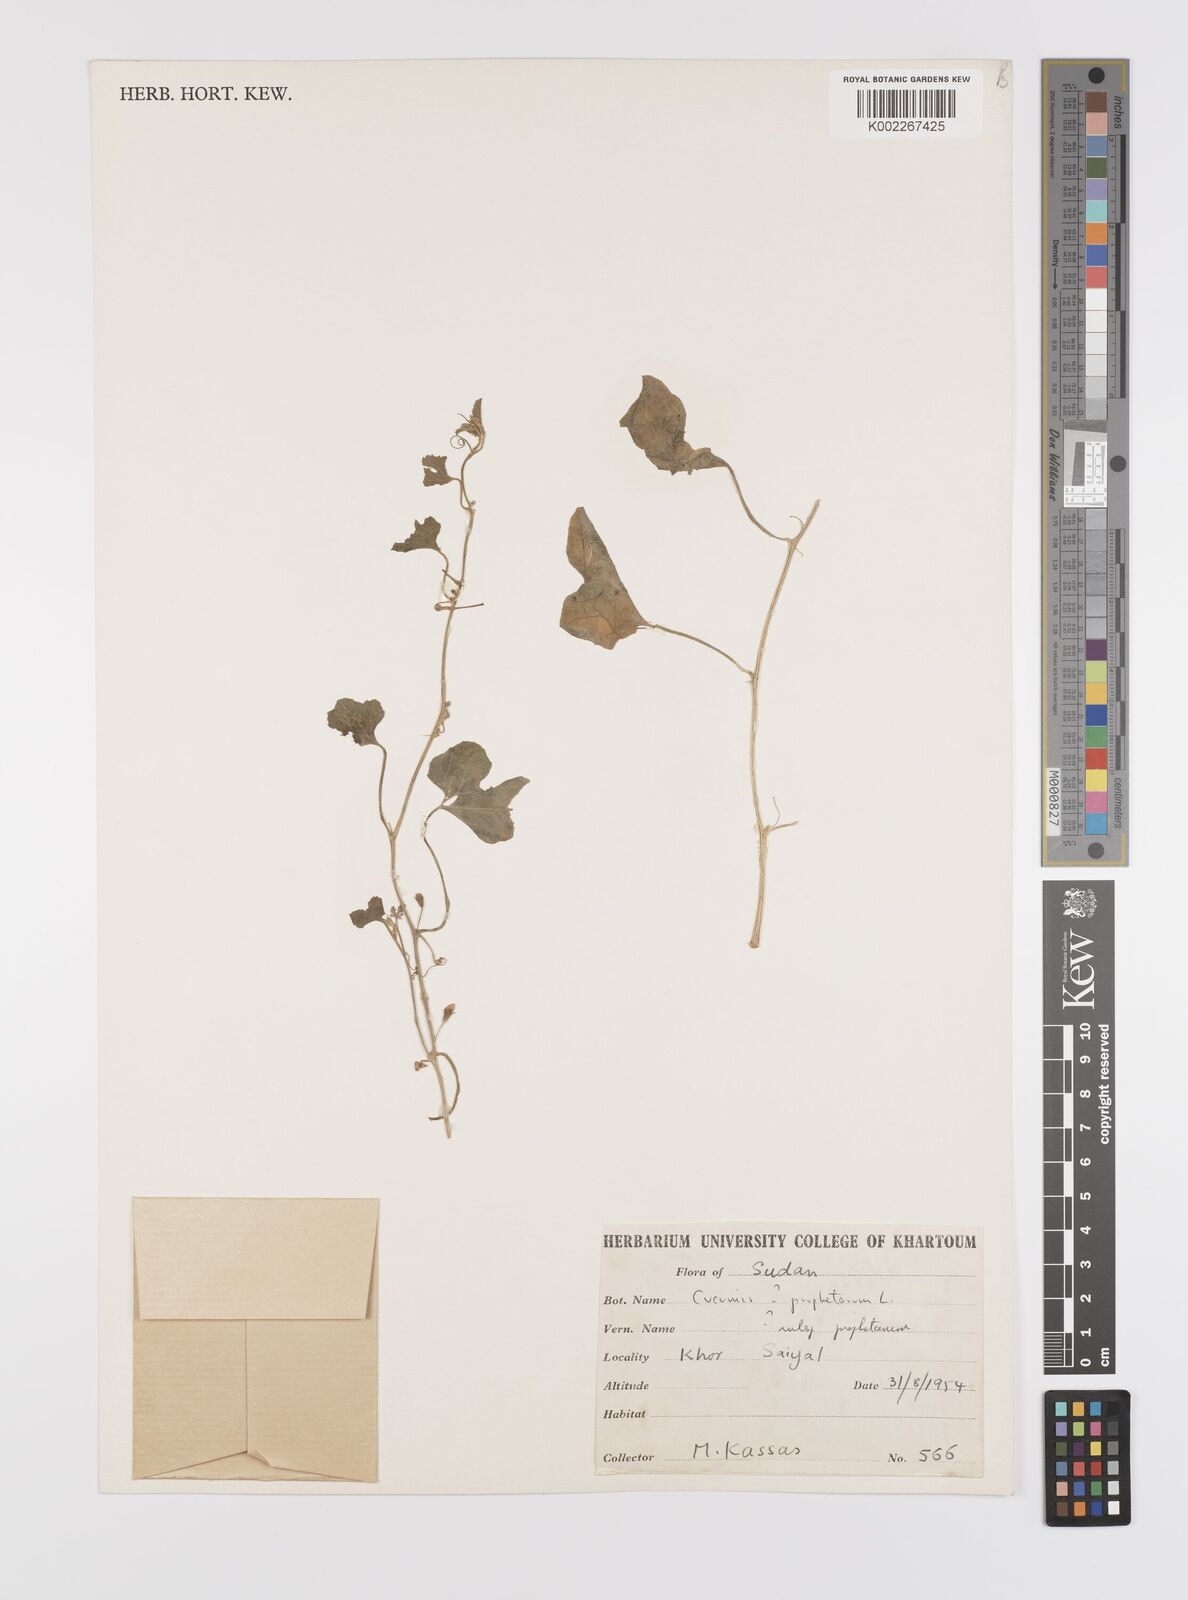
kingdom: Plantae
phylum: Tracheophyta
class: Magnoliopsida
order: Cucurbitales
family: Cucurbitaceae
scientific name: Cucurbitaceae
